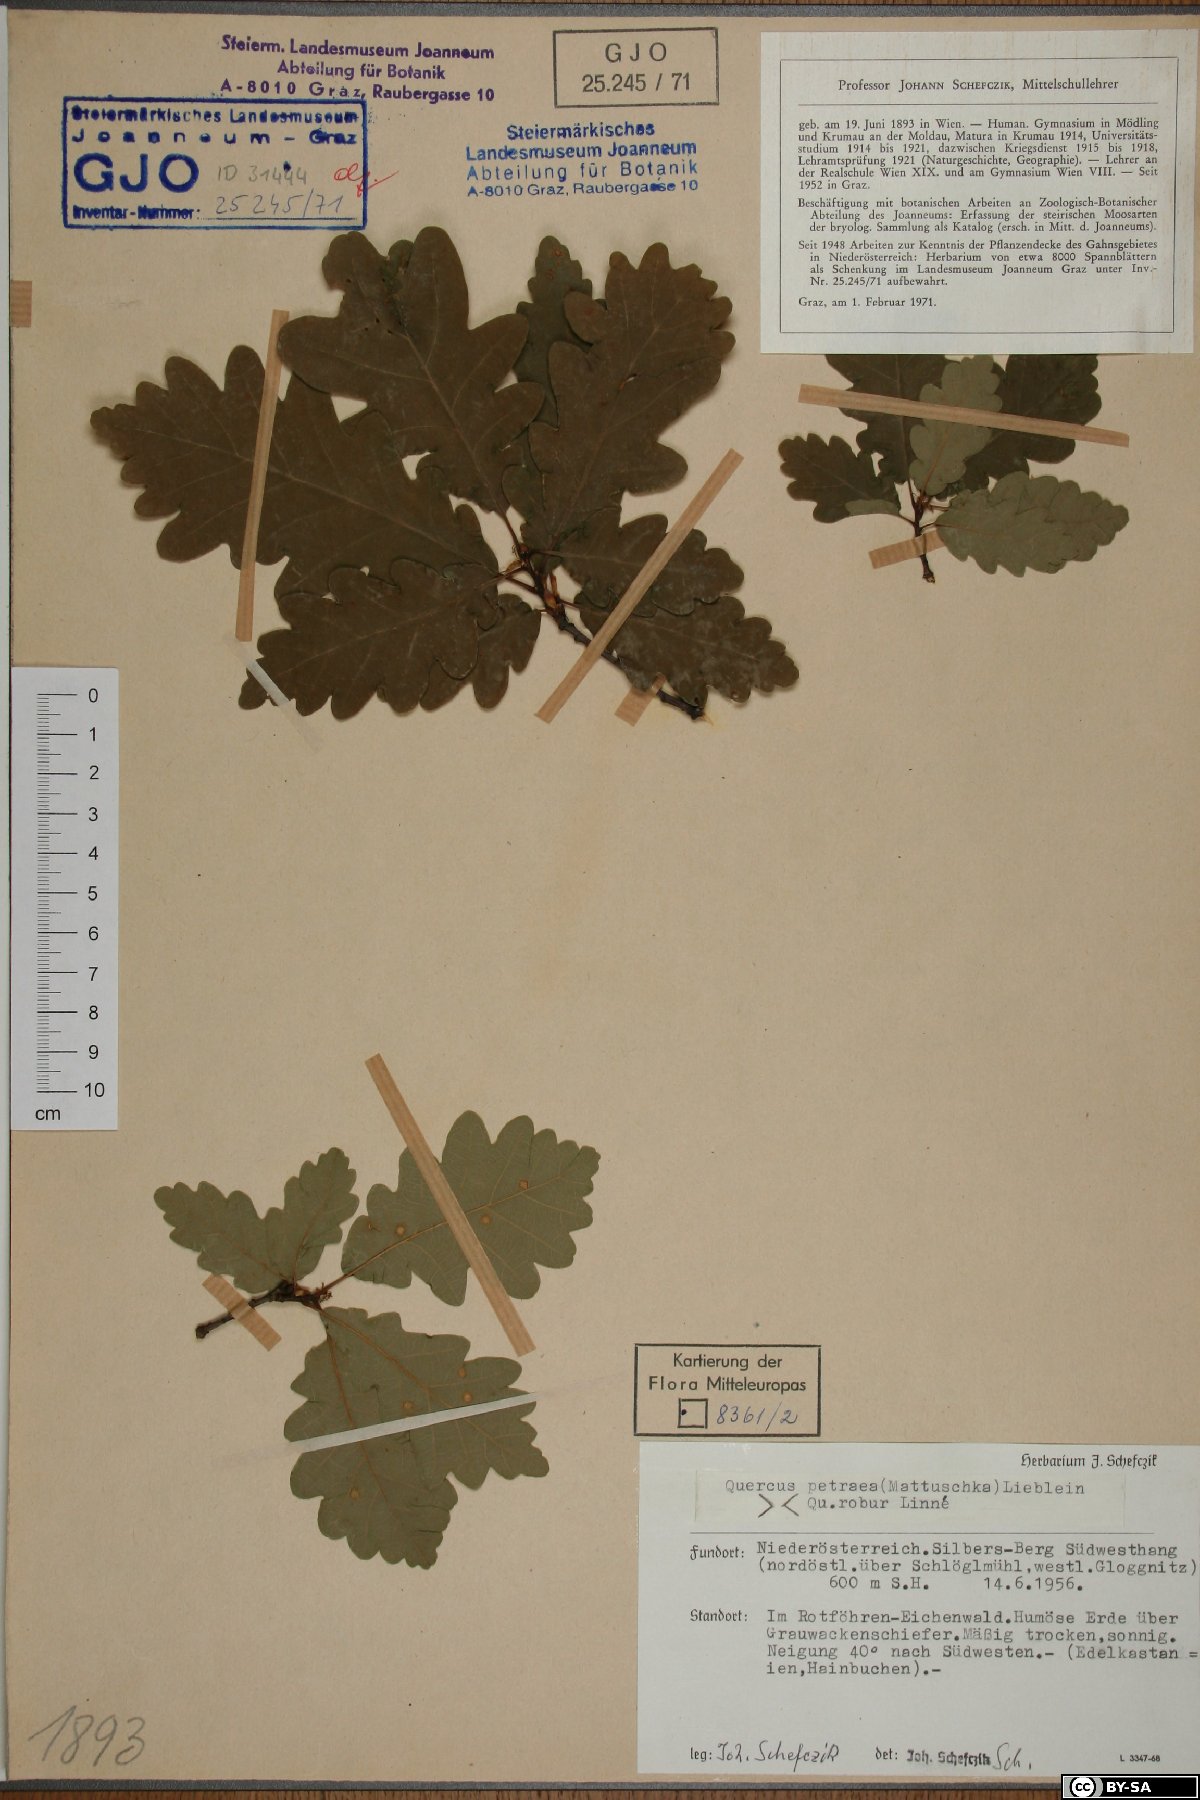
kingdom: Plantae
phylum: Tracheophyta
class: Magnoliopsida
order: Fagales
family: Fagaceae
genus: Quercus
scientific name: Quercus petraea
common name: Sessile oak
